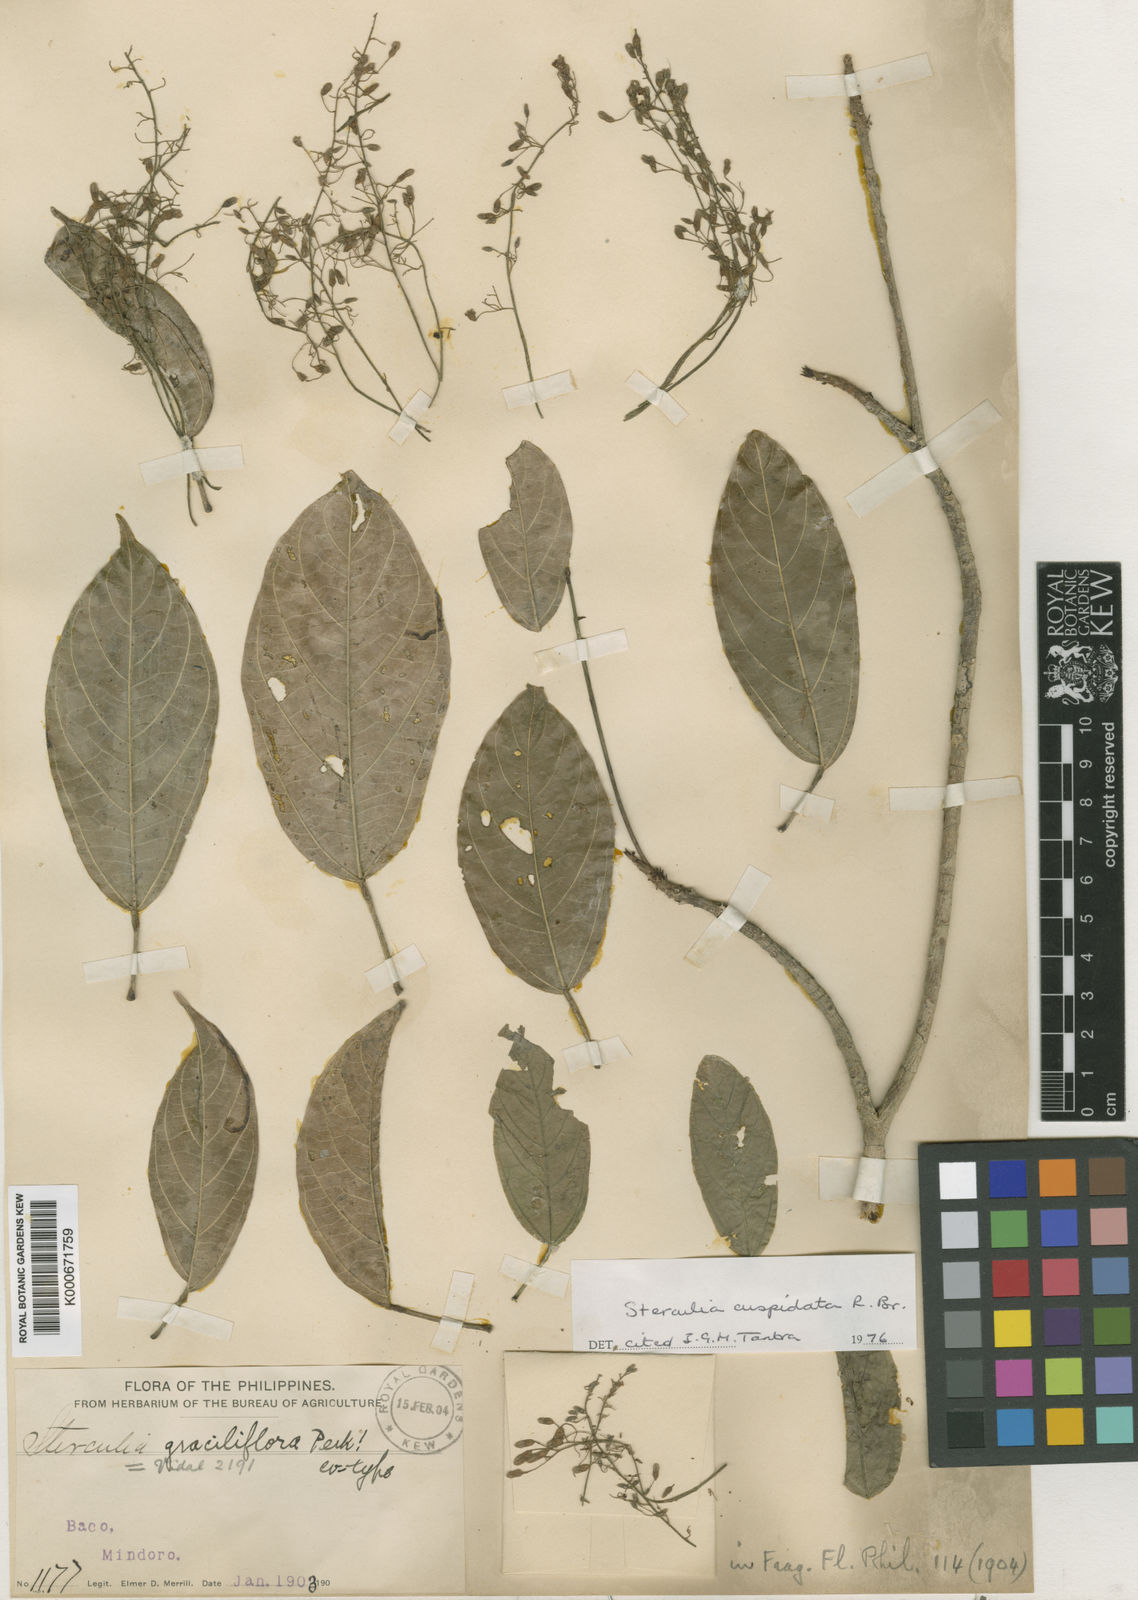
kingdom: Plantae
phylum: Tracheophyta
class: Magnoliopsida
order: Malvales
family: Malvaceae
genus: Sterculia
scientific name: Sterculia cuspidata
